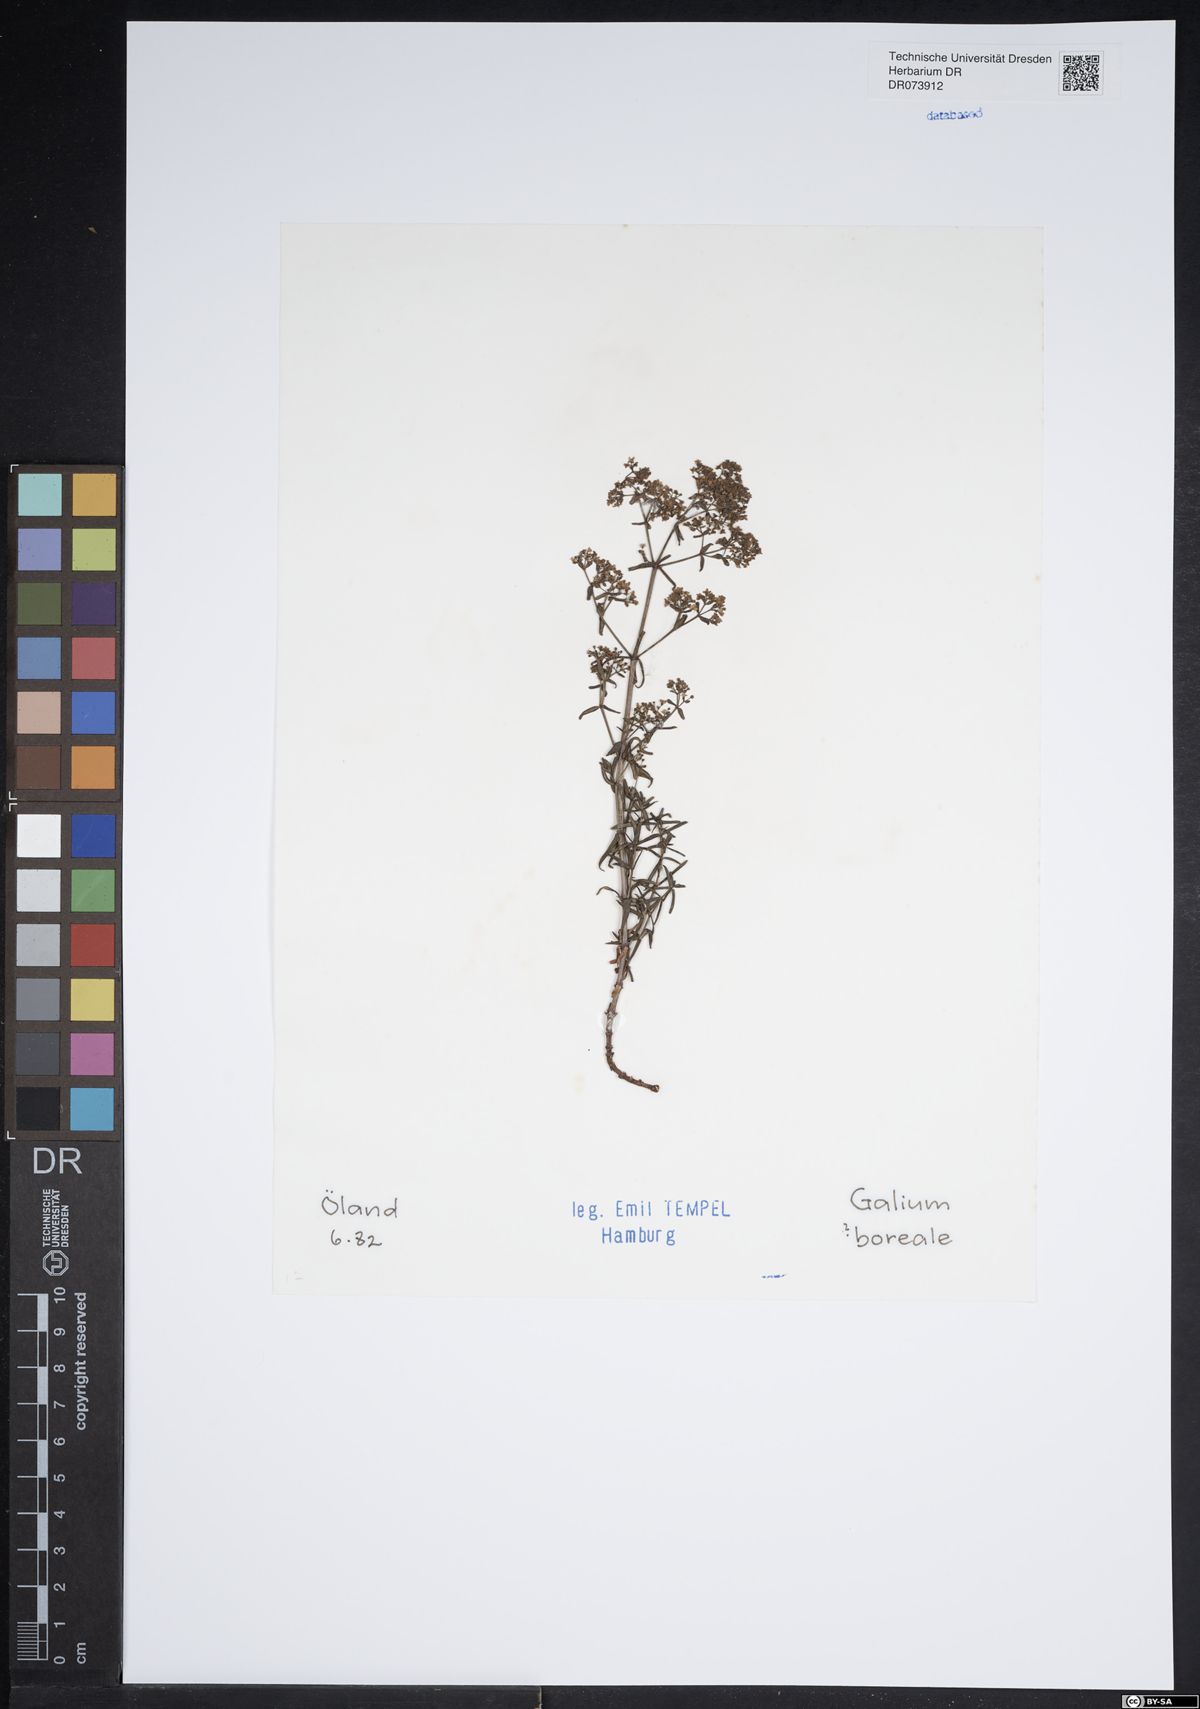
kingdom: Plantae
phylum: Tracheophyta
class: Magnoliopsida
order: Gentianales
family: Rubiaceae
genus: Galium
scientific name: Galium boreale
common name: Northern bedstraw
